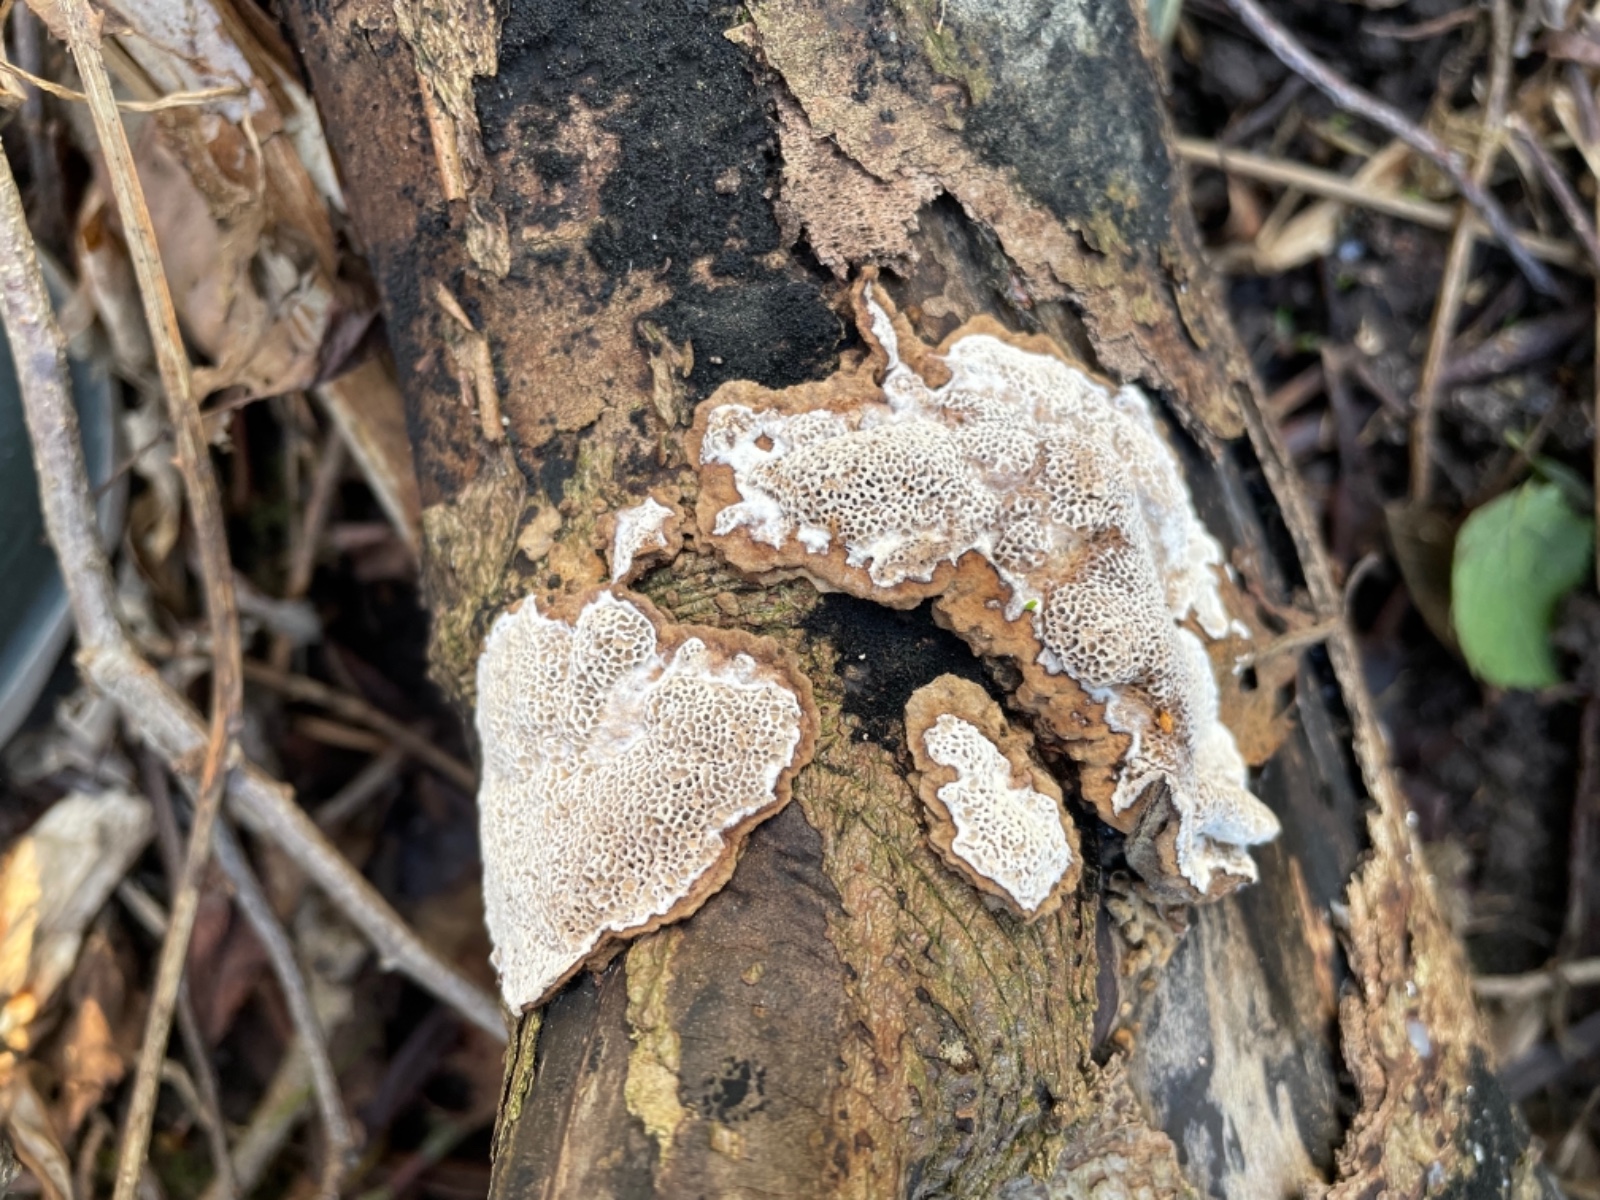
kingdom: Fungi
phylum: Basidiomycota
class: Agaricomycetes
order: Polyporales
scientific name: Polyporales
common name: poresvampordenen
